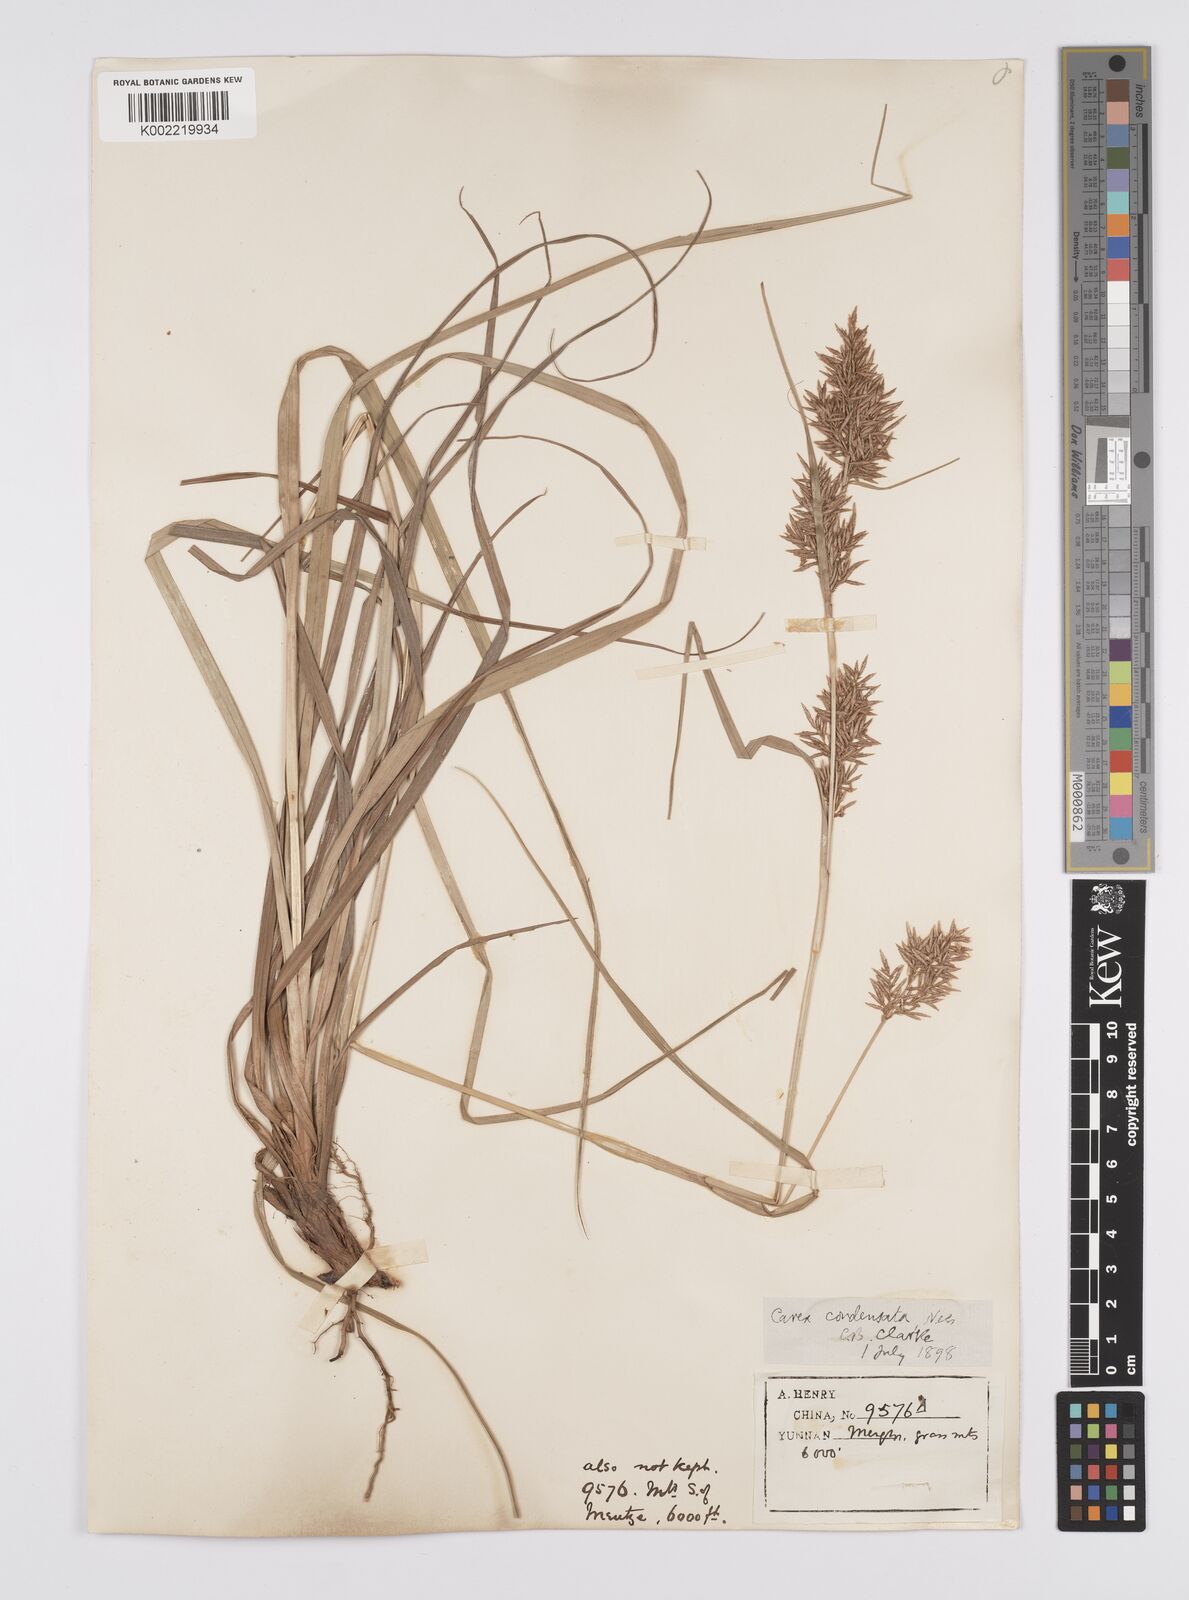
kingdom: Plantae
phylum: Tracheophyta
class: Liliopsida
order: Poales
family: Cyperaceae
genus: Carex
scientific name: Carex cruciata
